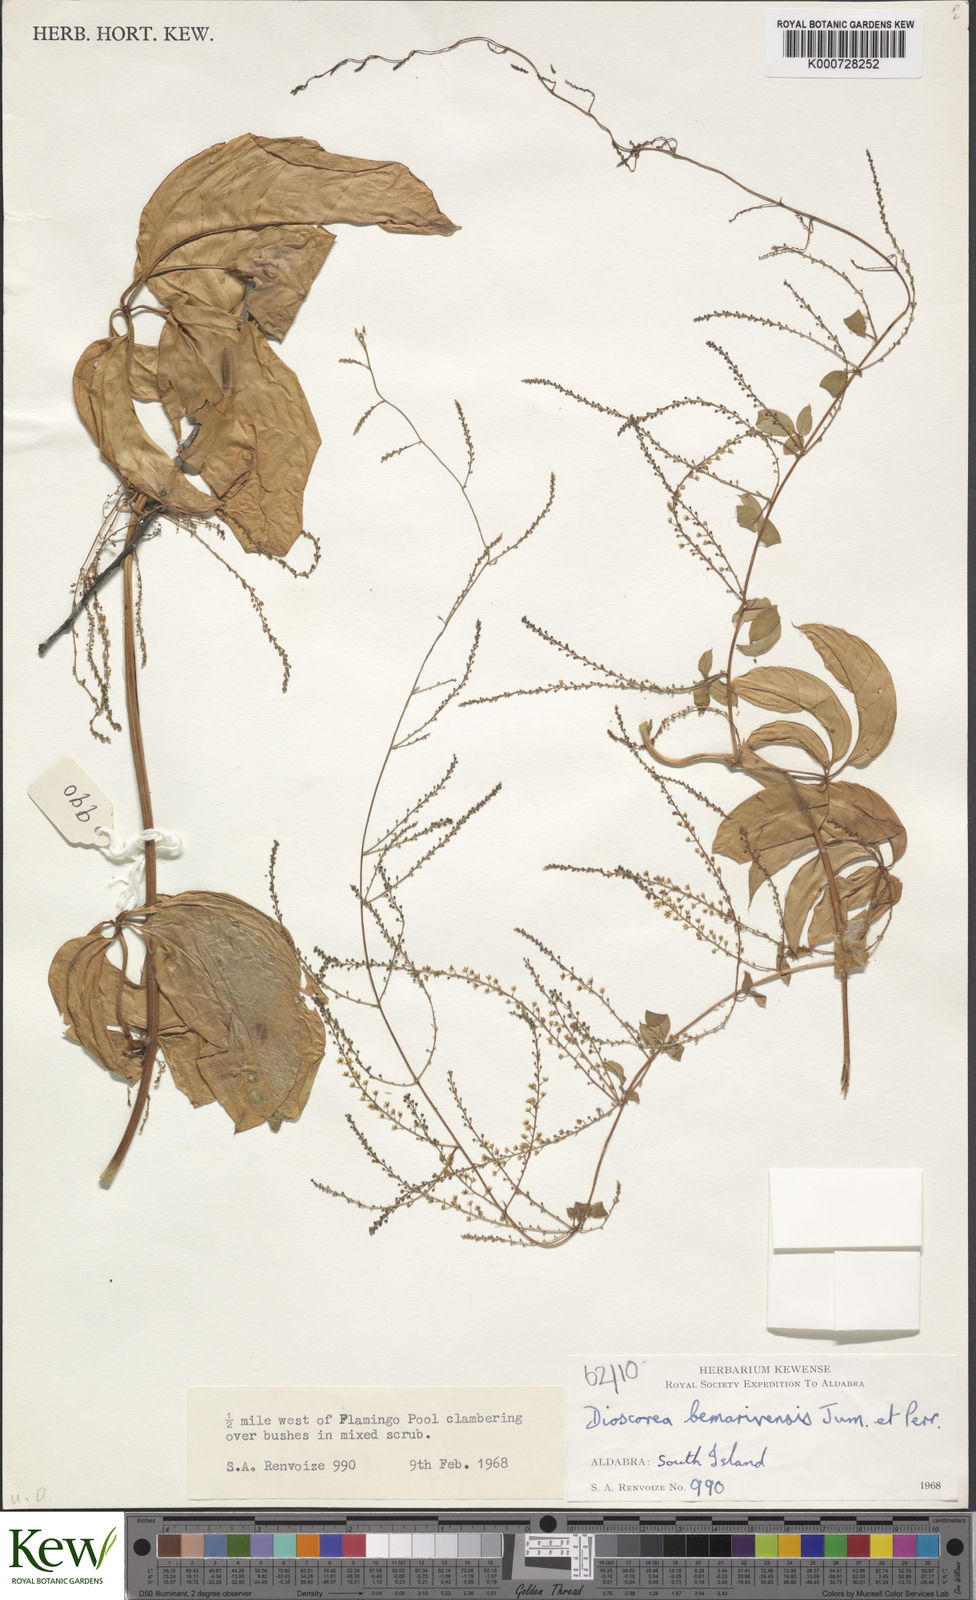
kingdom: Plantae
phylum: Tracheophyta
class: Liliopsida
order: Dioscoreales
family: Dioscoreaceae
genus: Dioscorea
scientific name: Dioscorea bemarivensis
